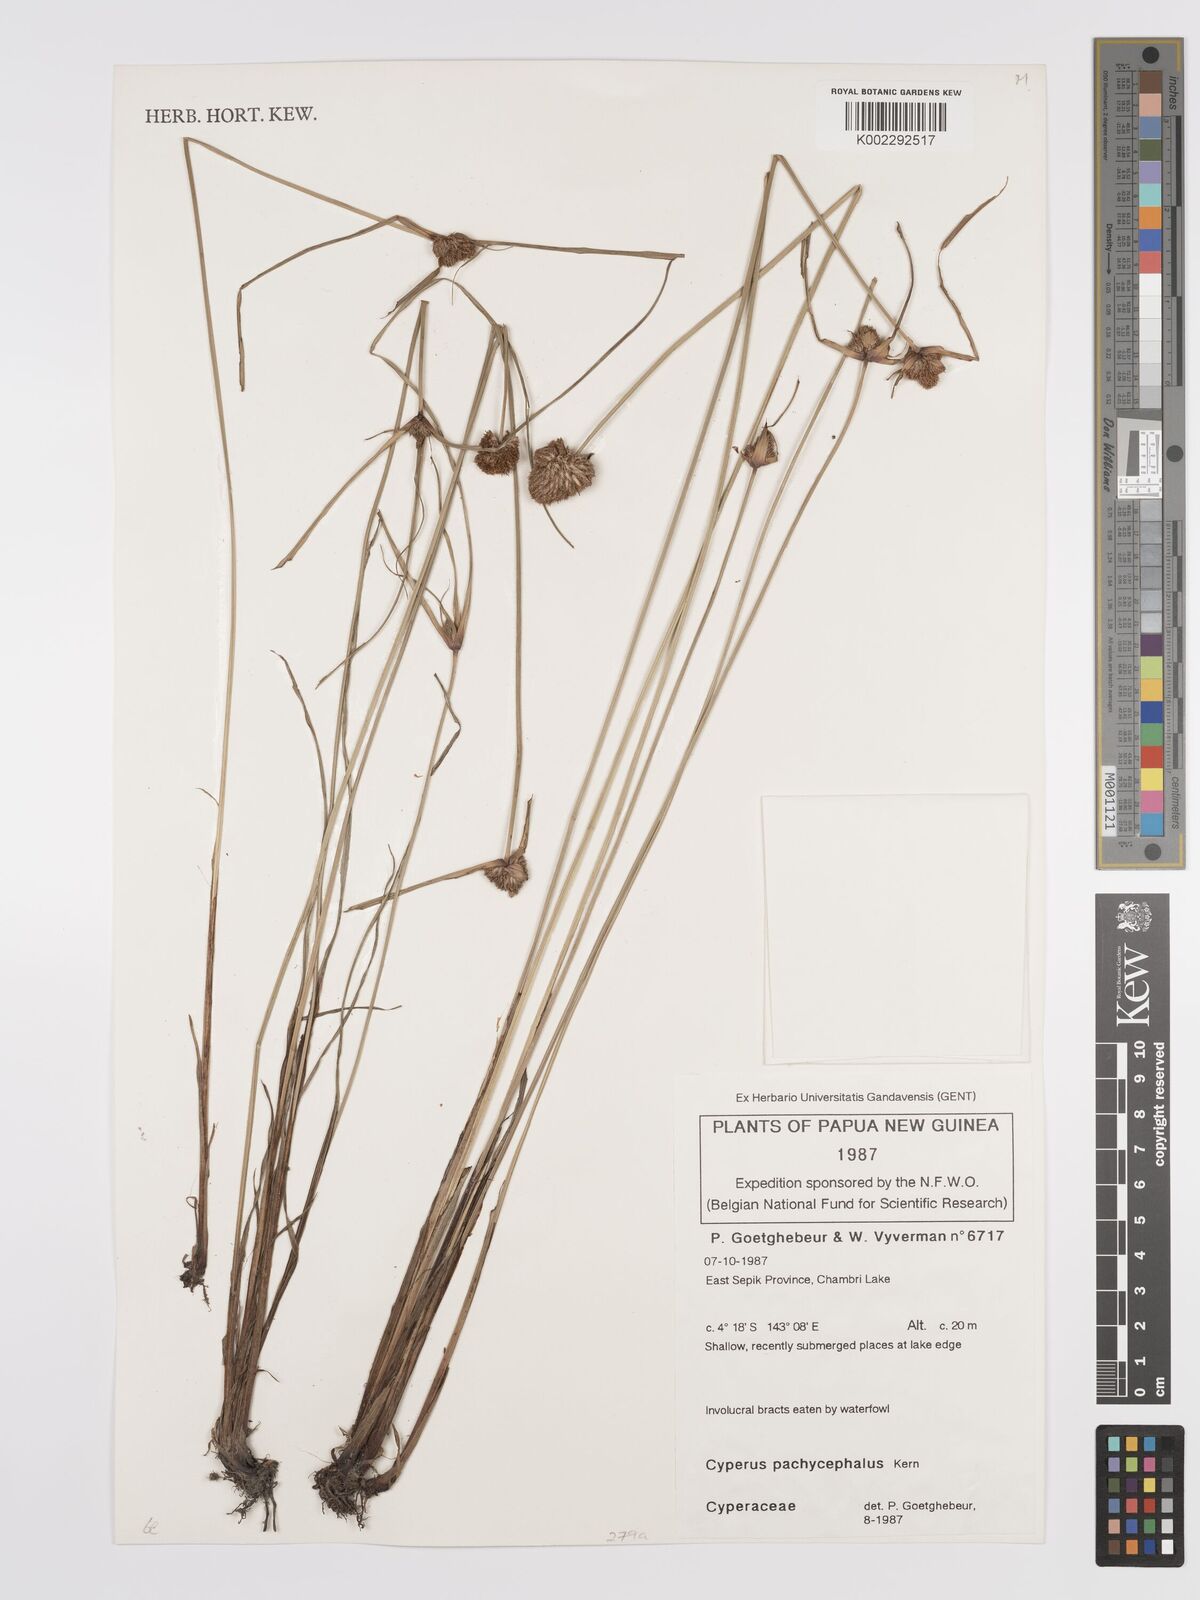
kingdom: Plantae
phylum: Tracheophyta
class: Liliopsida
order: Poales
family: Cyperaceae
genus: Cyperus
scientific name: Cyperus pachycephalus
